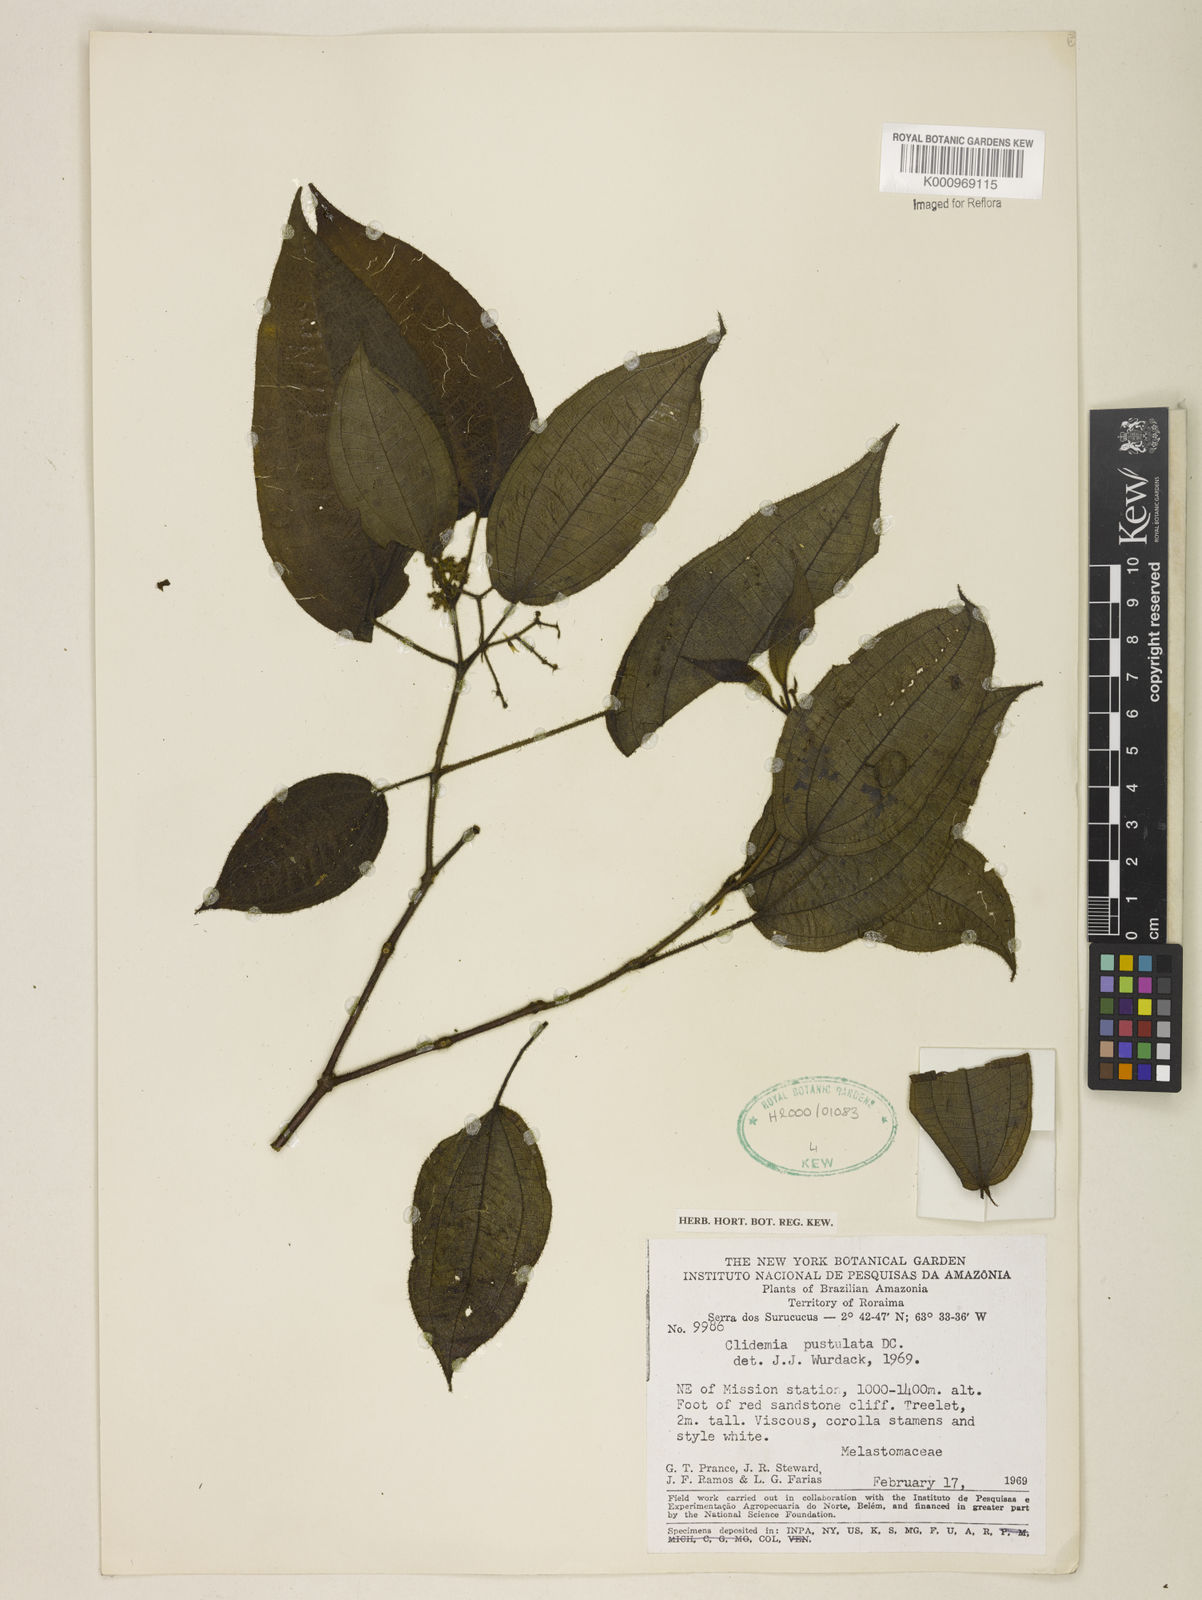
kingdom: Plantae
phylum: Tracheophyta
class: Magnoliopsida
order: Myrtales
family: Melastomataceae
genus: Miconia
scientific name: Miconia fenestrata
